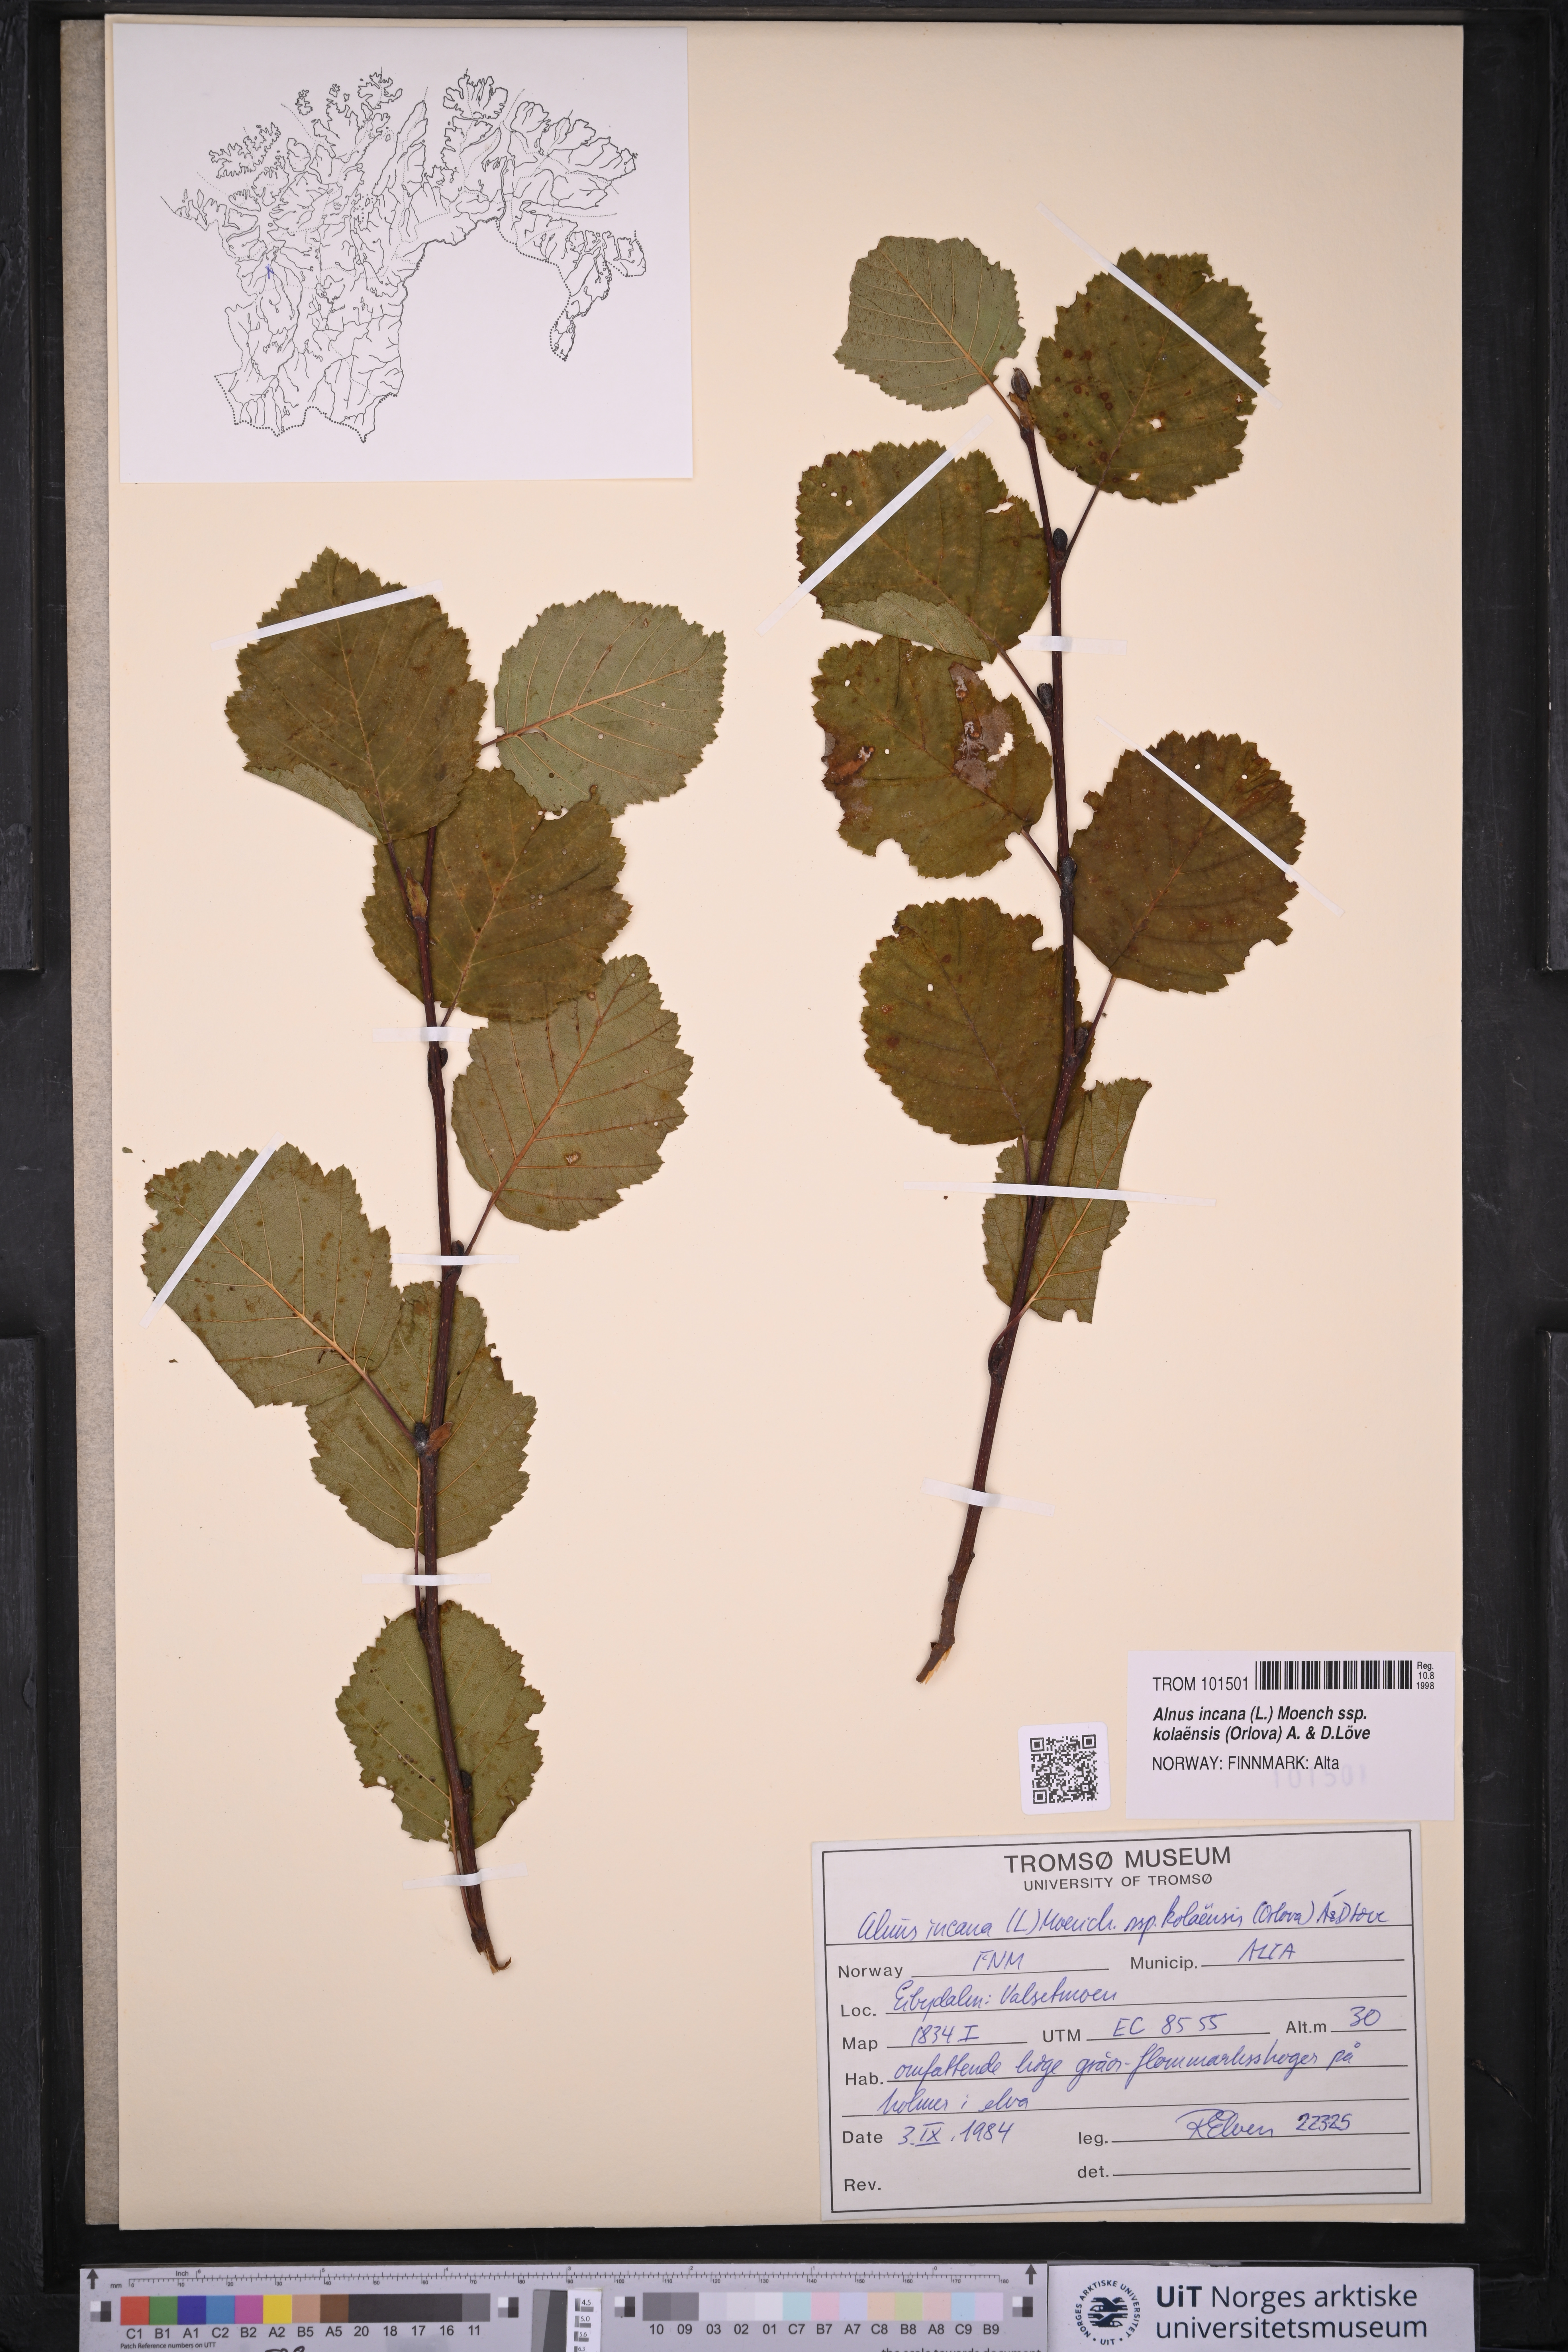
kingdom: Plantae
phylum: Tracheophyta
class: Magnoliopsida
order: Fagales
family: Betulaceae
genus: Alnus
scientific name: Alnus incana
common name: Grey alder
